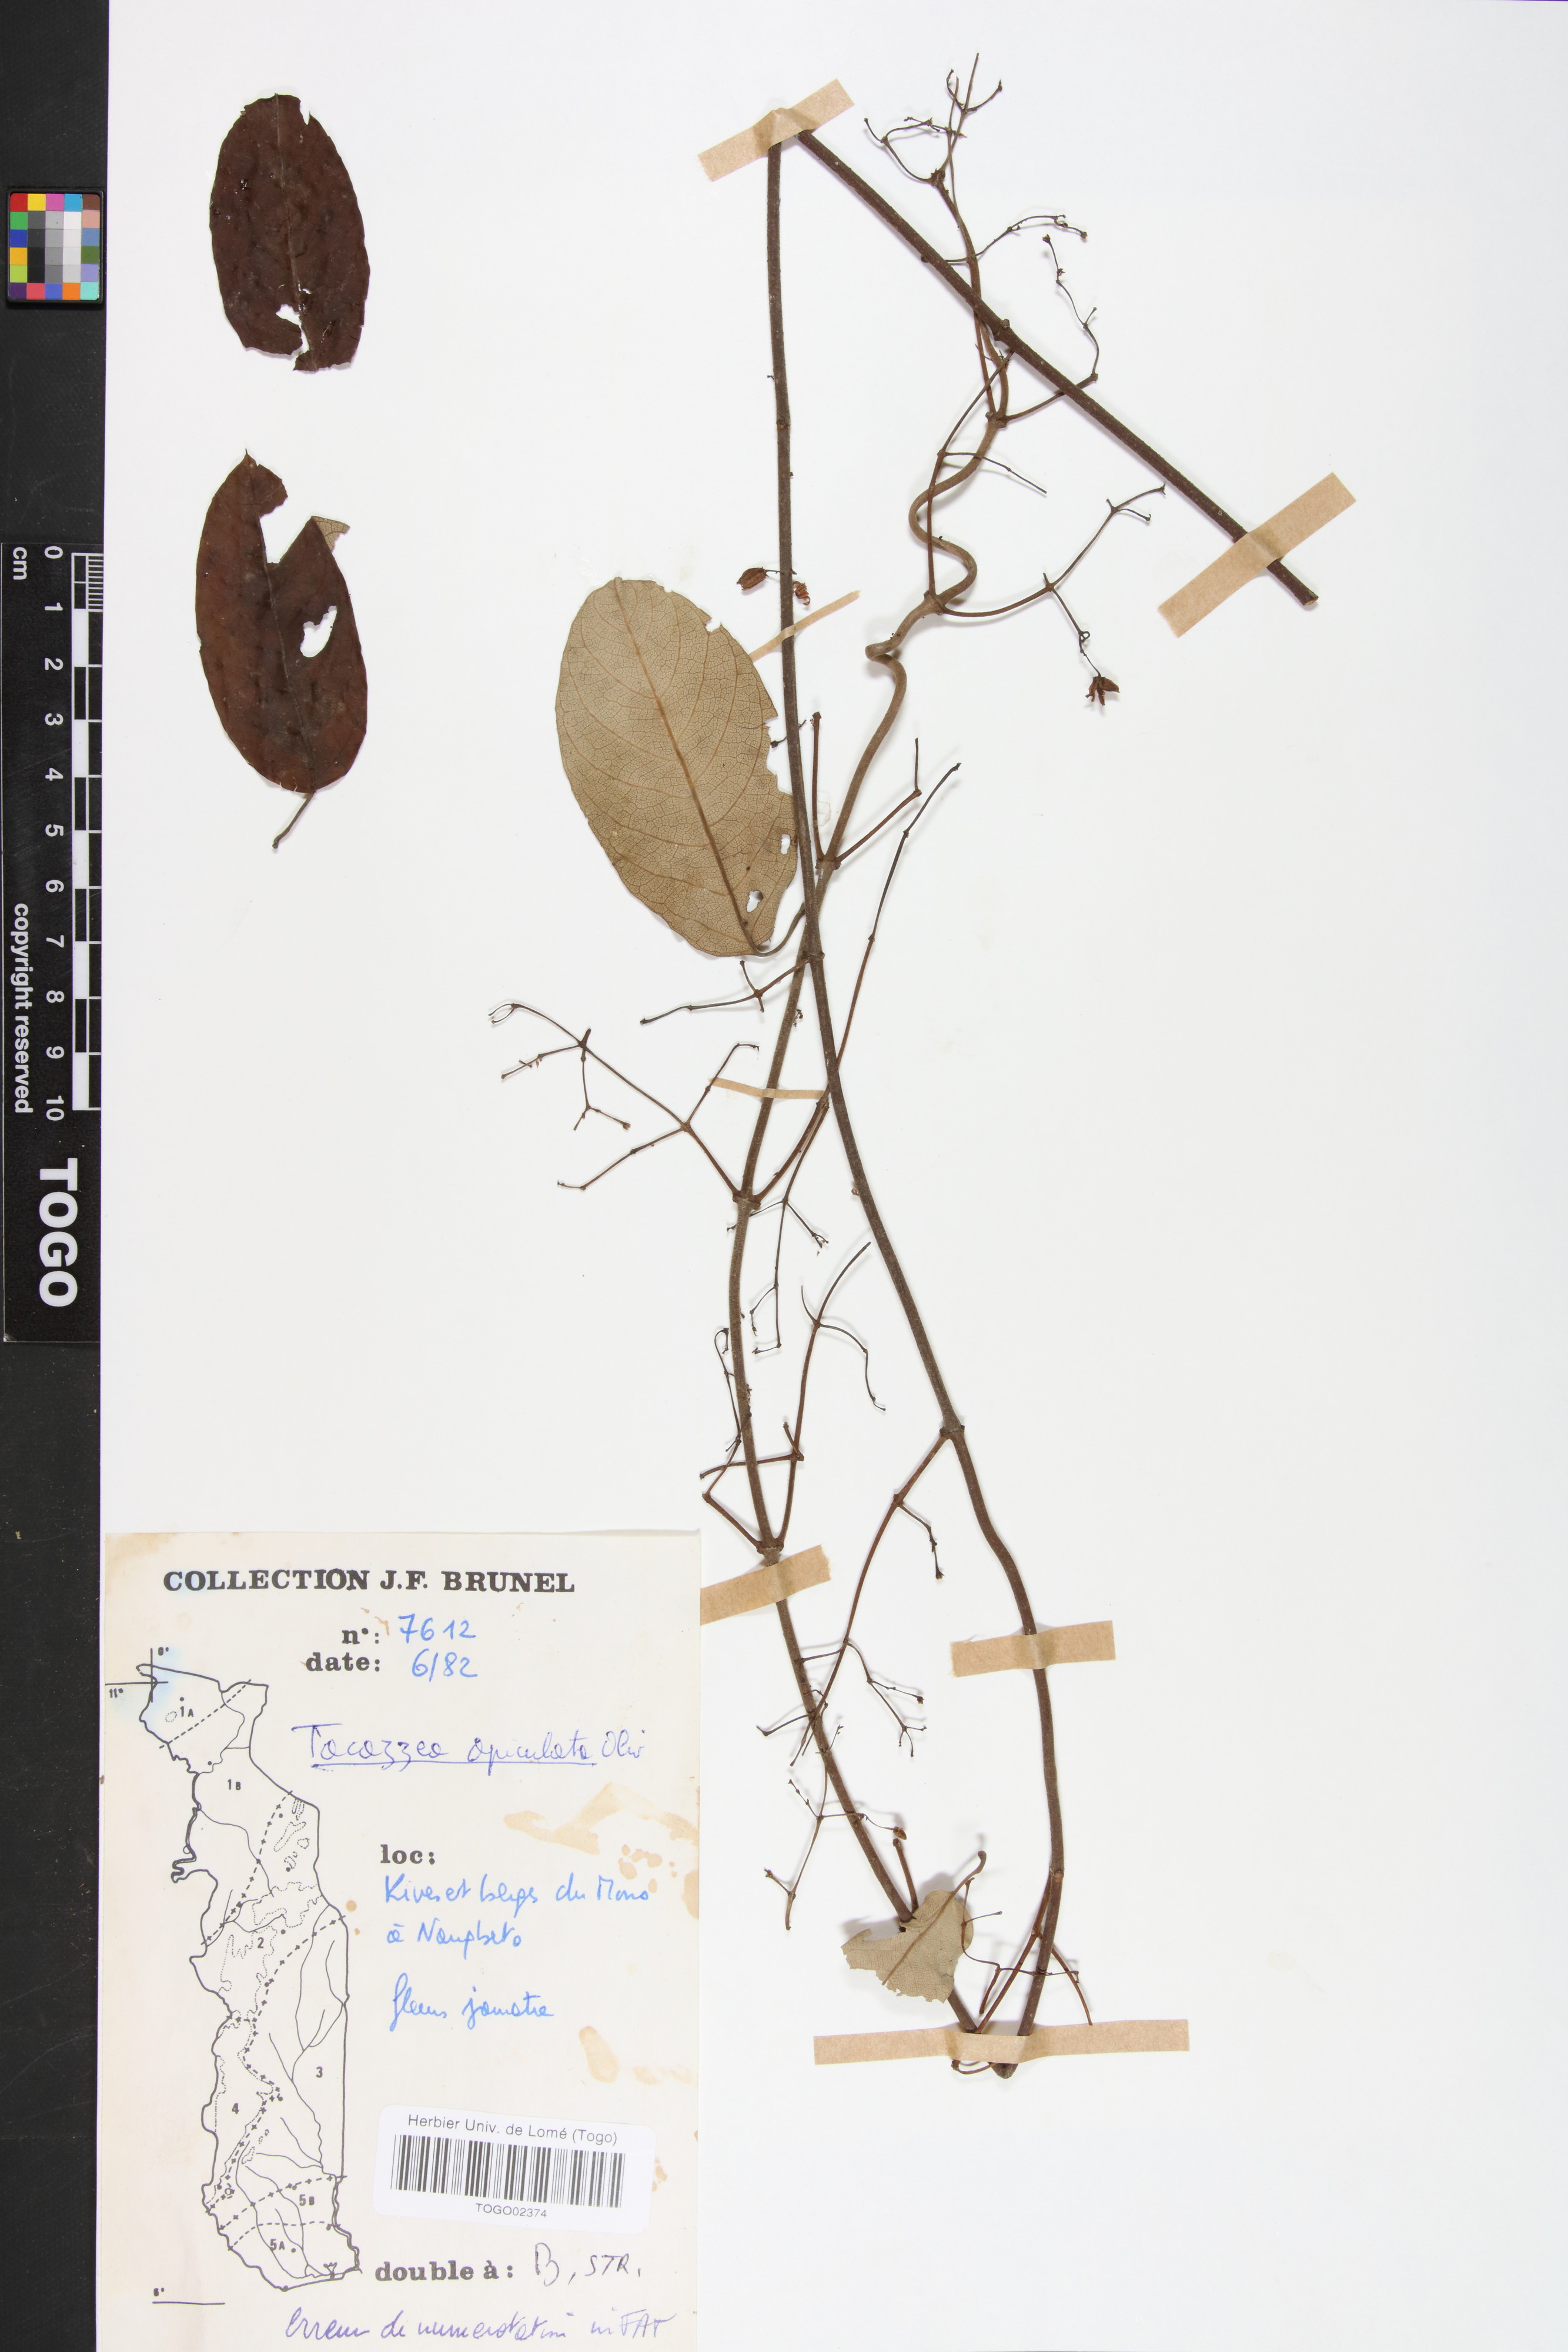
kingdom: Plantae
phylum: Tracheophyta
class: Magnoliopsida
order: Gentianales
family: Apocynaceae
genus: Tacazzea
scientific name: Tacazzea apiculata
